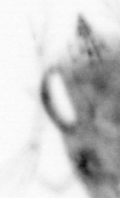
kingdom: Animalia
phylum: Arthropoda
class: Copepoda
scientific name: Copepoda
